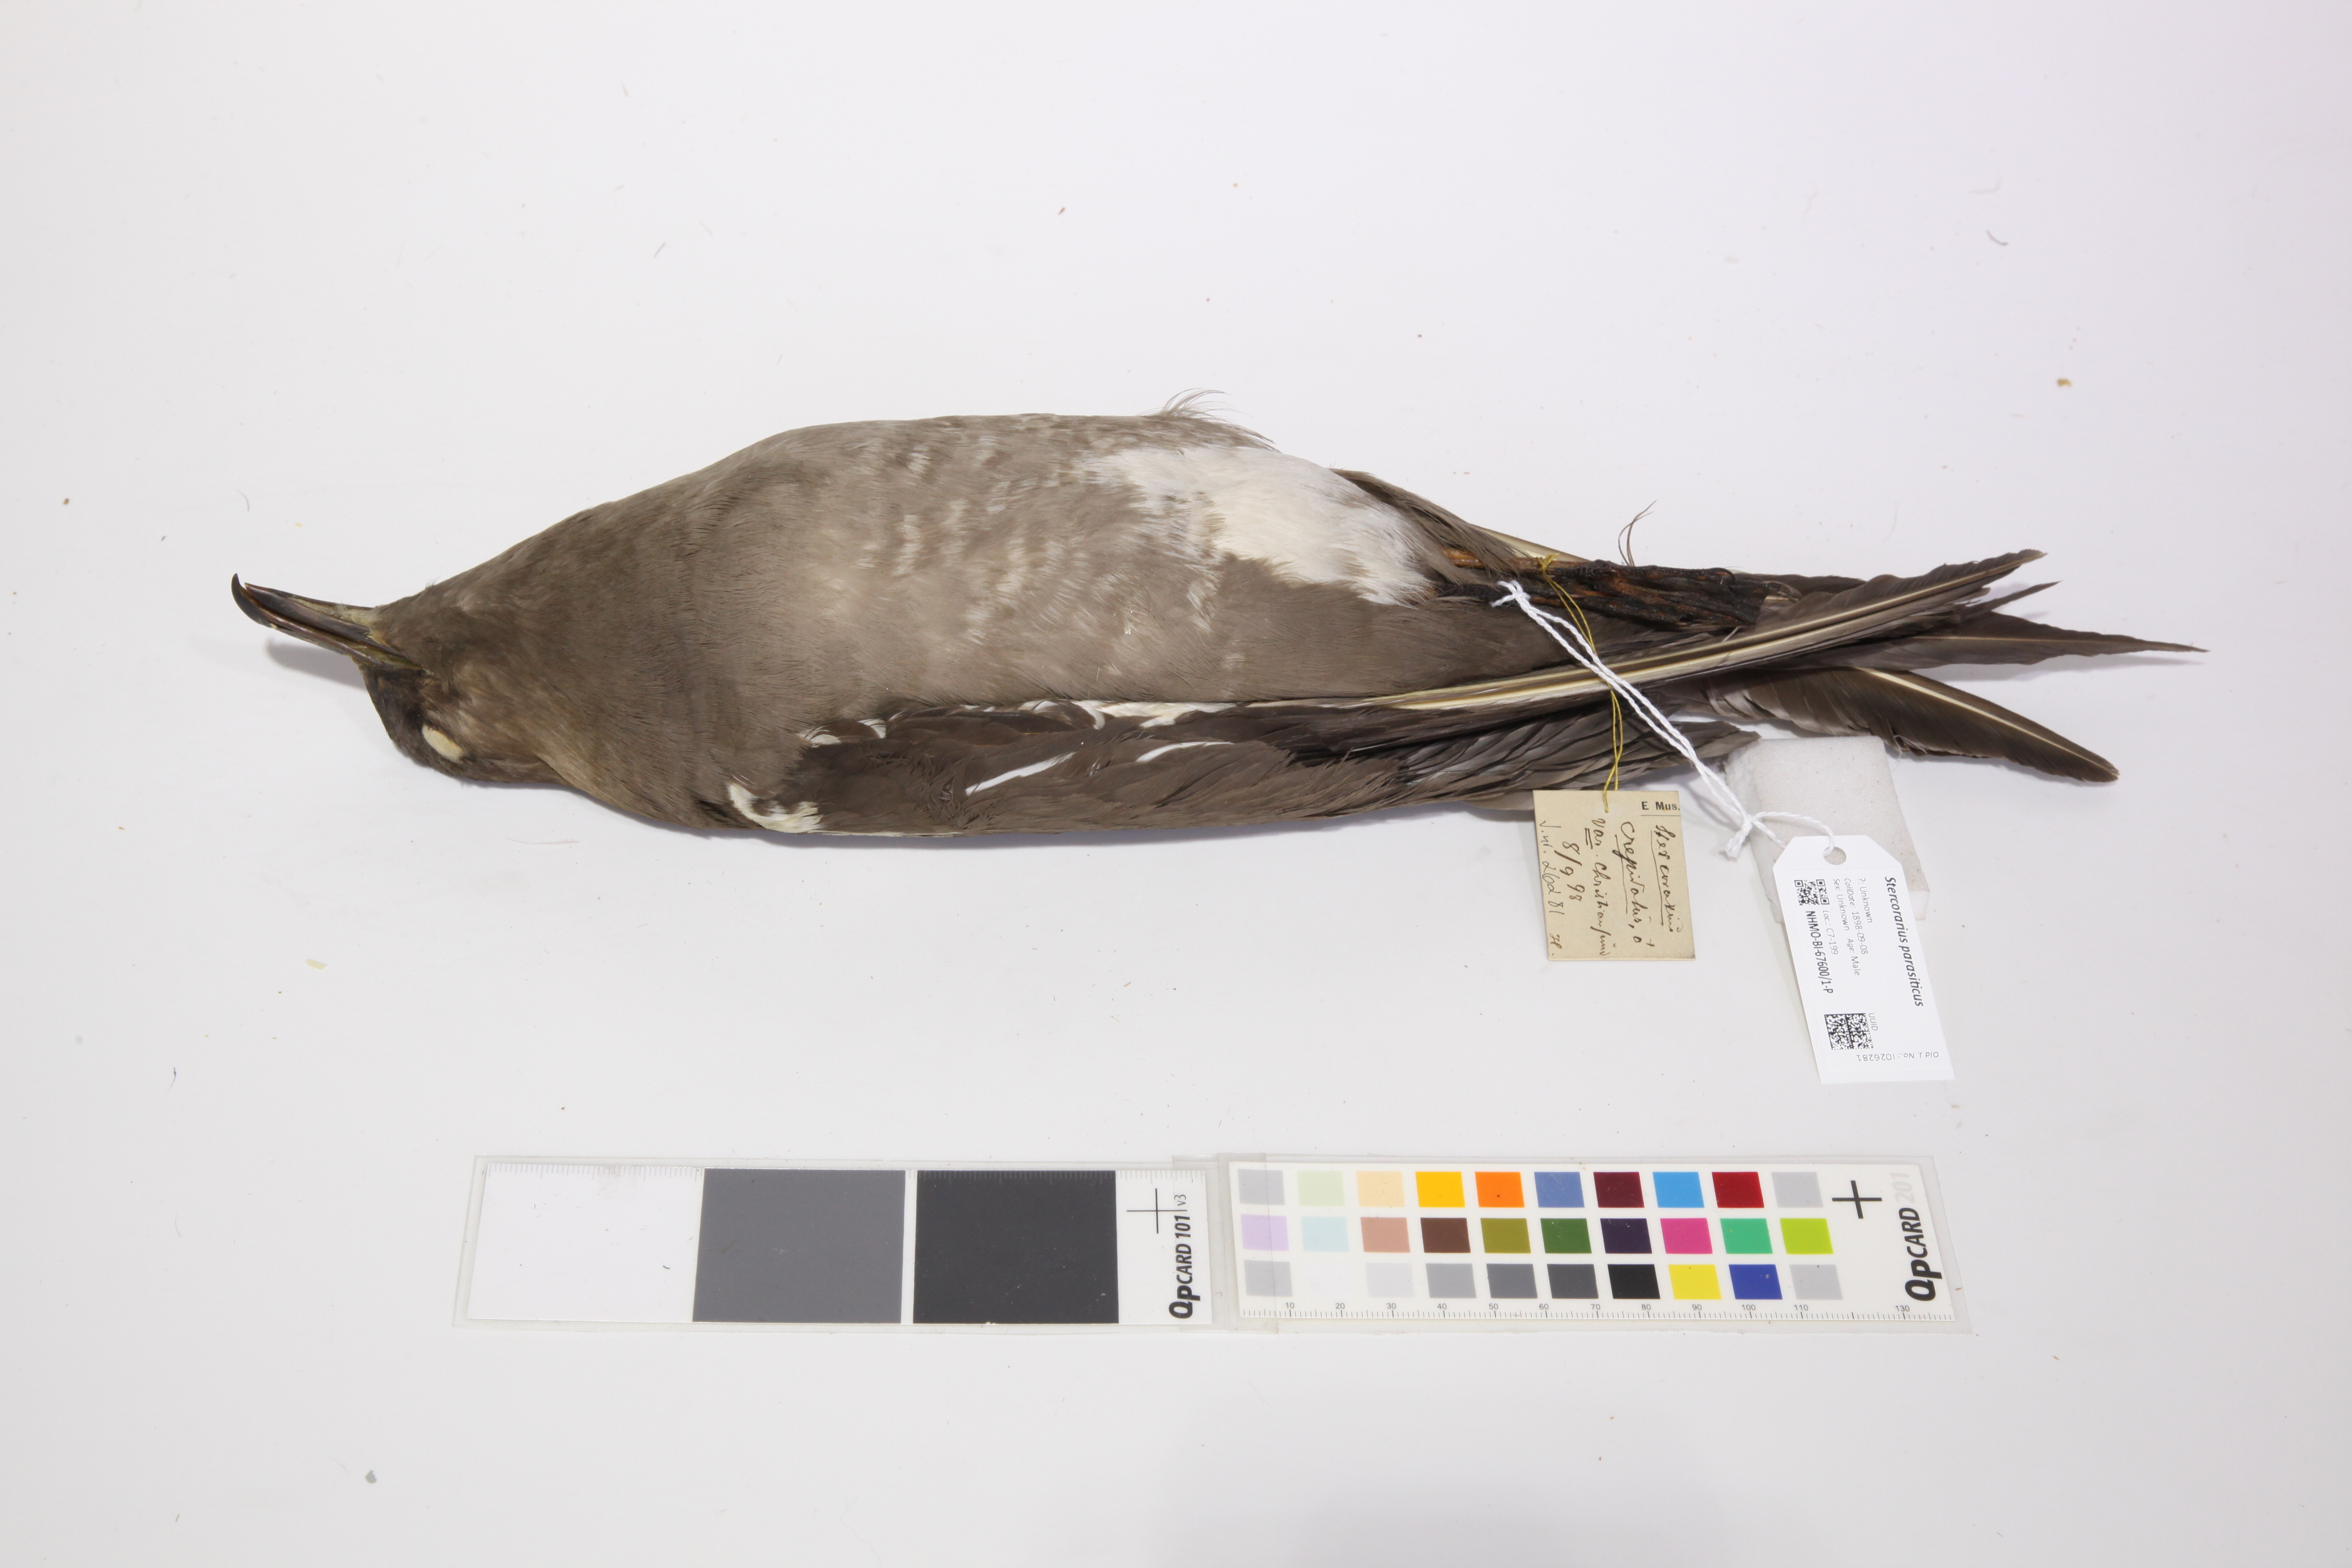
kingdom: Animalia
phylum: Chordata
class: Aves
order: Charadriiformes
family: Stercorariidae
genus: Stercorarius
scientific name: Stercorarius parasiticus
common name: Parasitic jaeger
